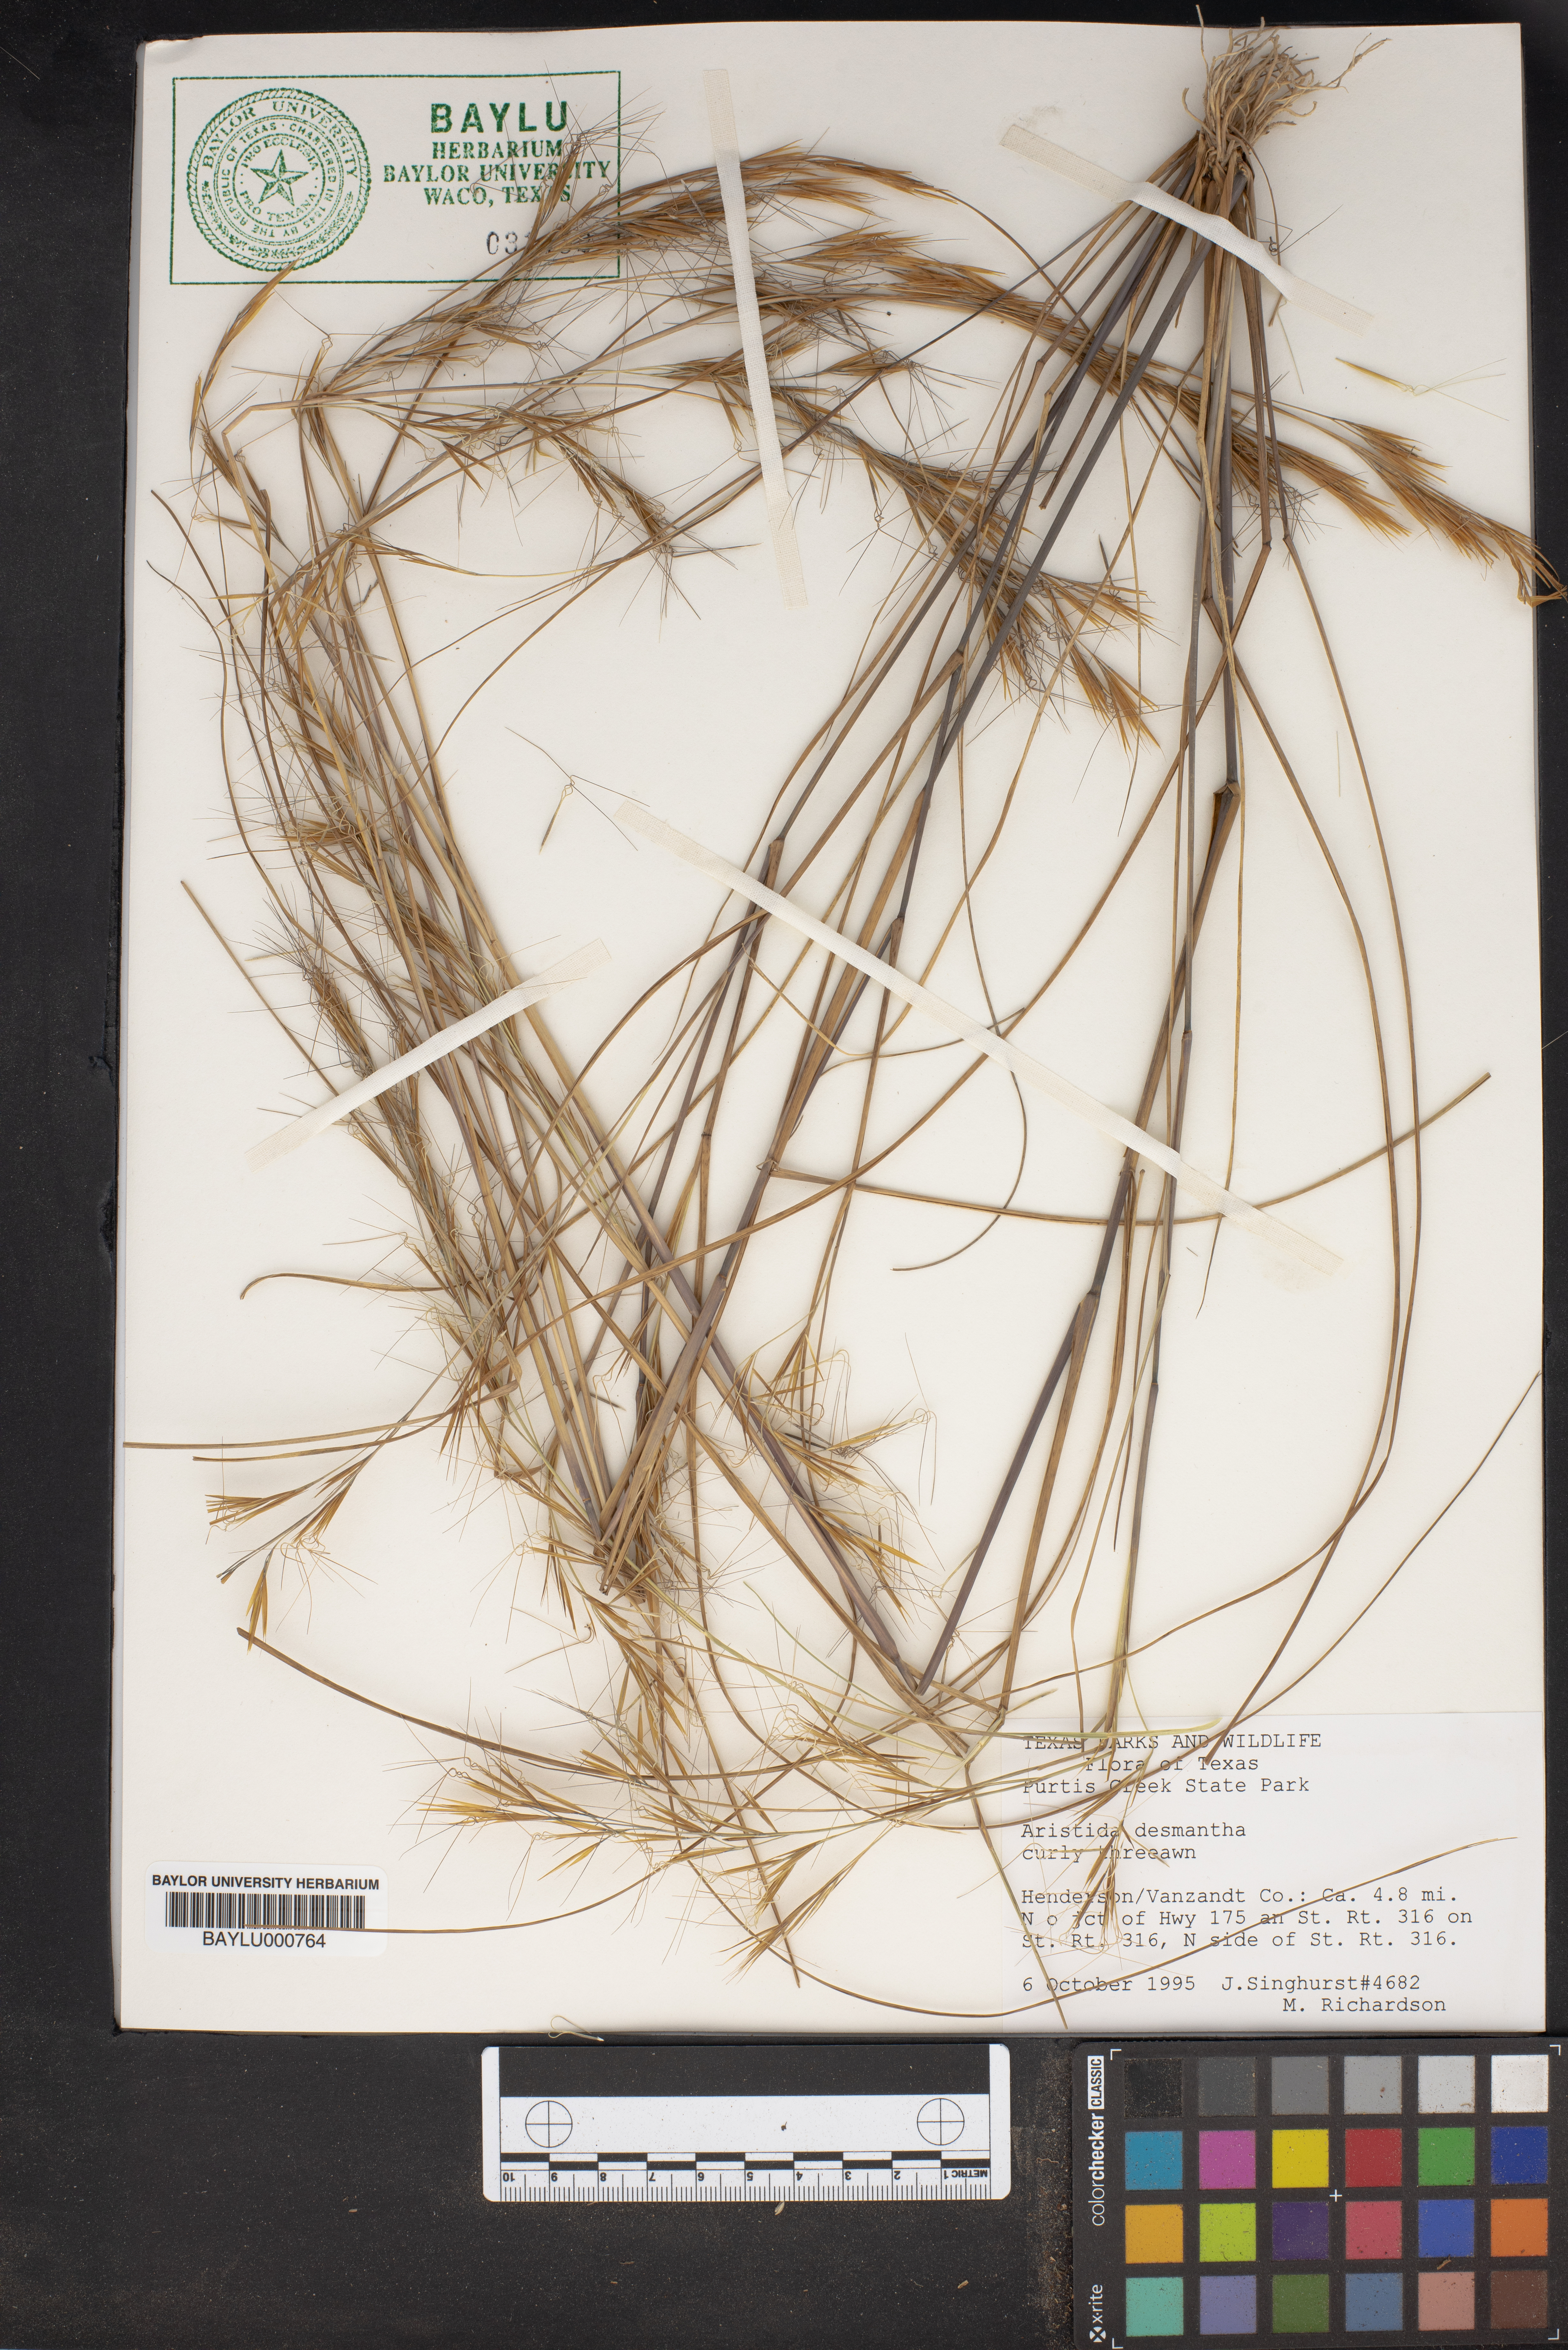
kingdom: Plantae
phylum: Tracheophyta
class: Liliopsida
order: Poales
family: Poaceae
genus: Aristida
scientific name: Aristida desmantha
